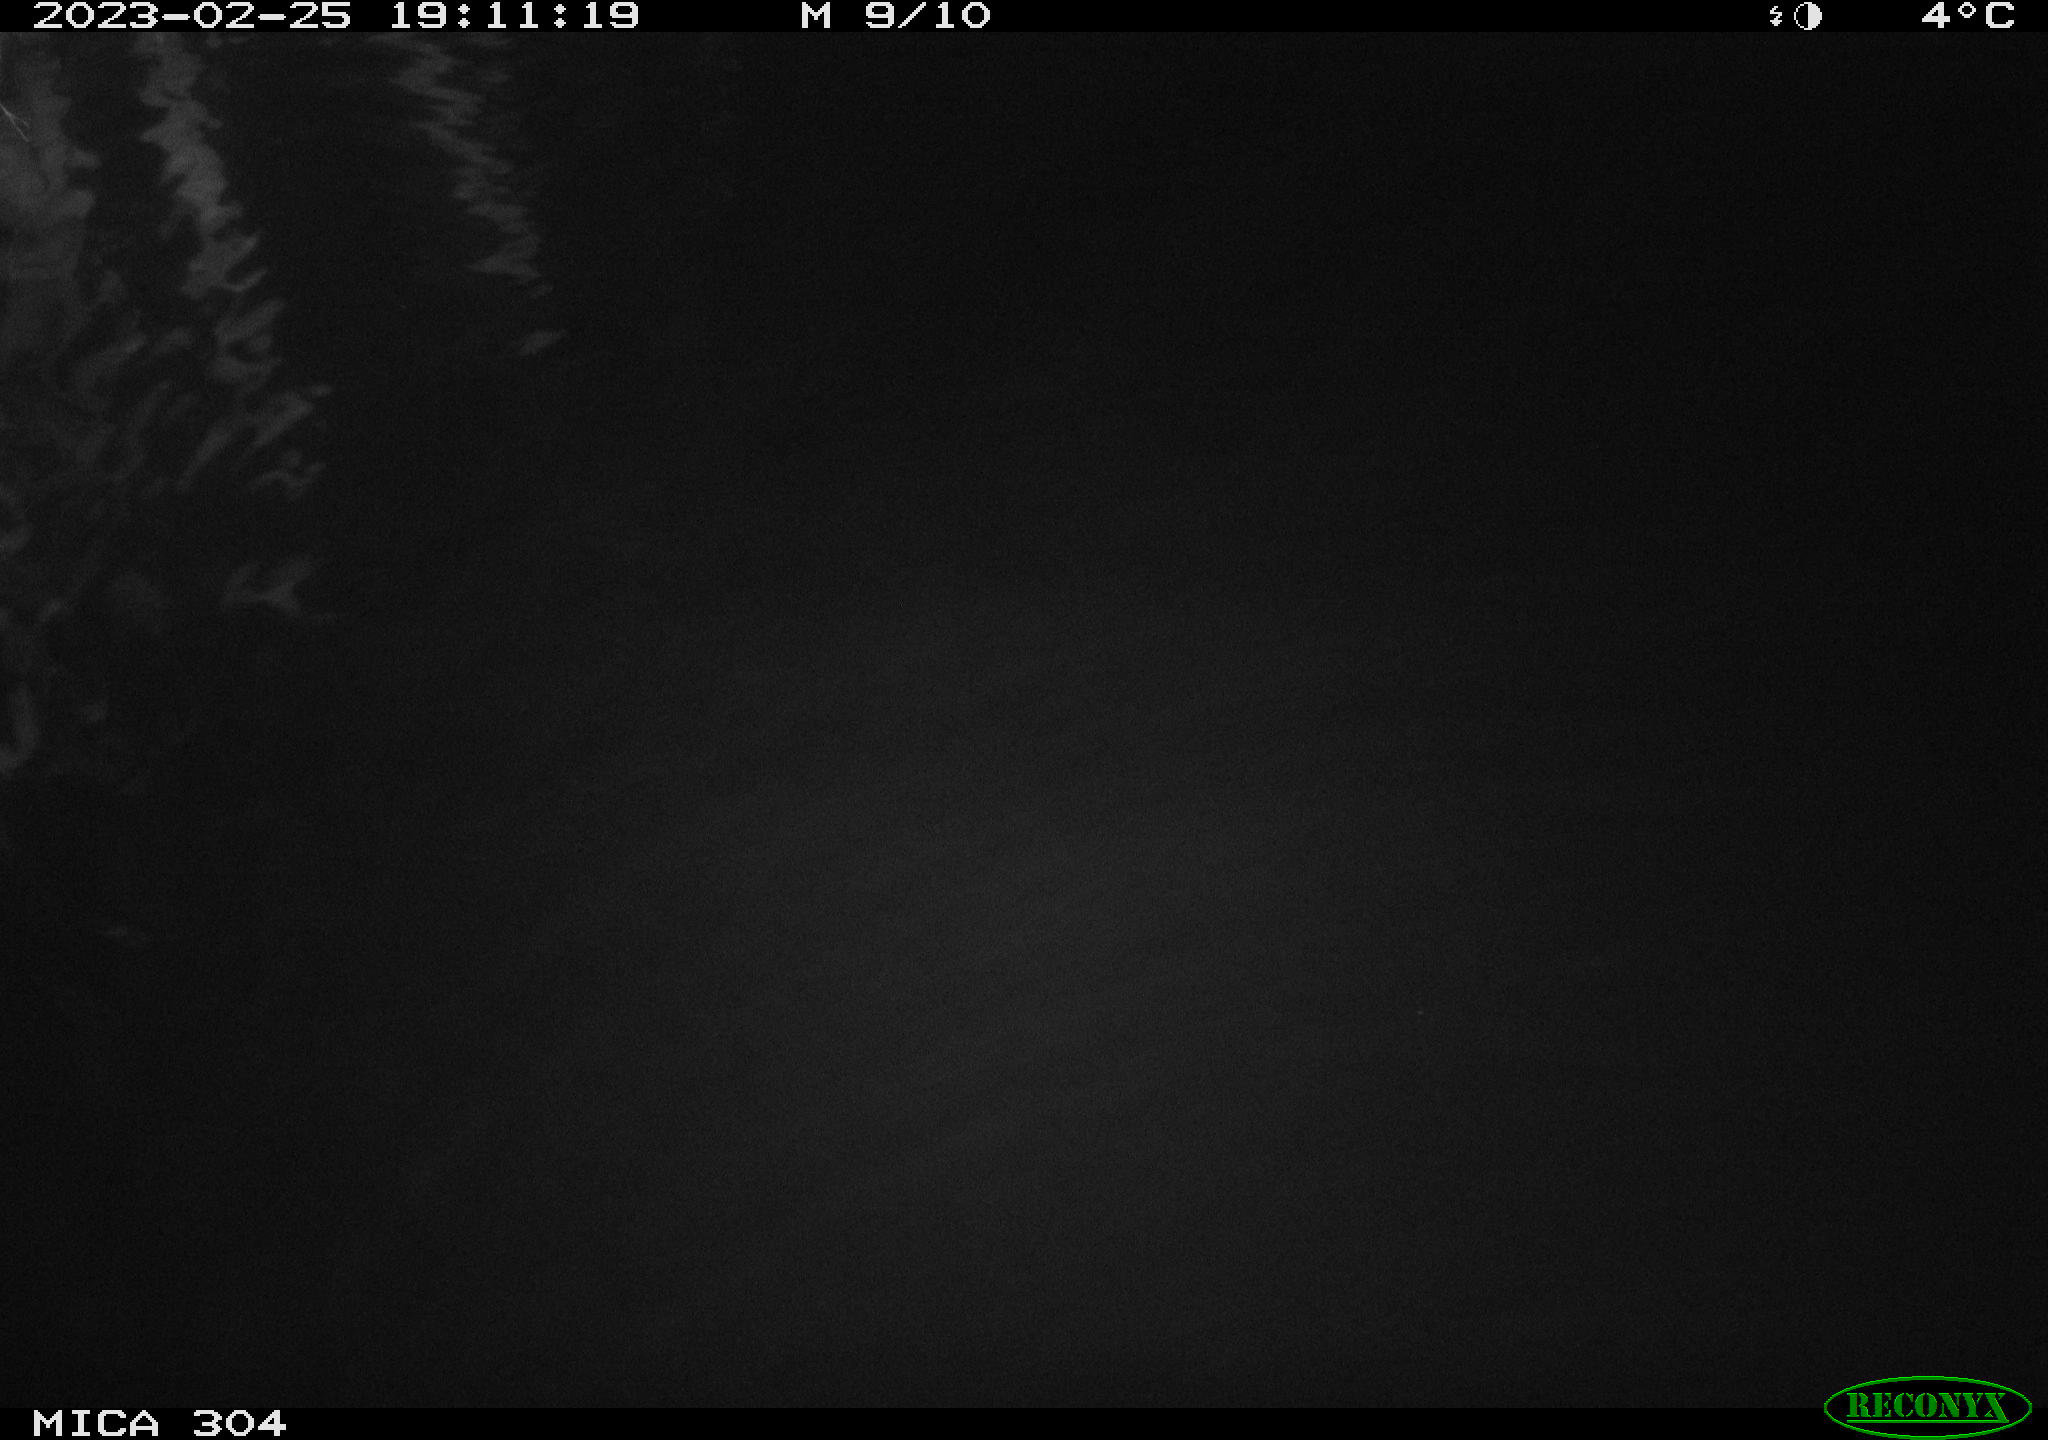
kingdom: Animalia
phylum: Chordata
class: Mammalia
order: Rodentia
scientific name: Rodentia
